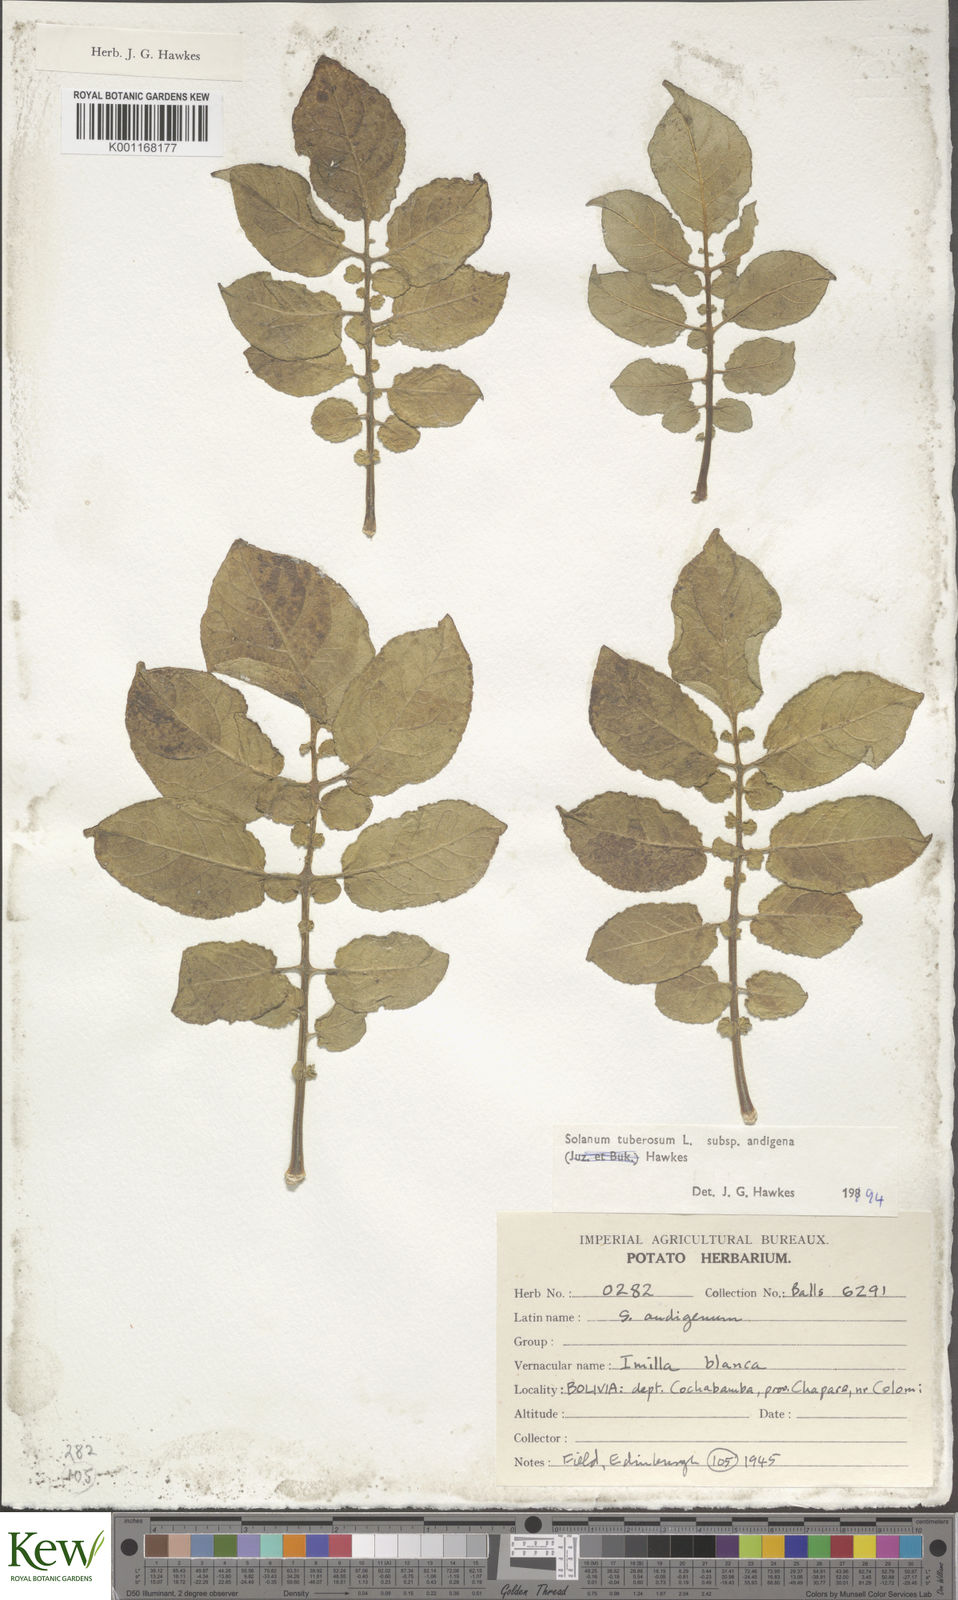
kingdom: Plantae
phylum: Tracheophyta
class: Magnoliopsida
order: Solanales
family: Solanaceae
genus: Solanum
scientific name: Solanum tuberosum
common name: Potato
